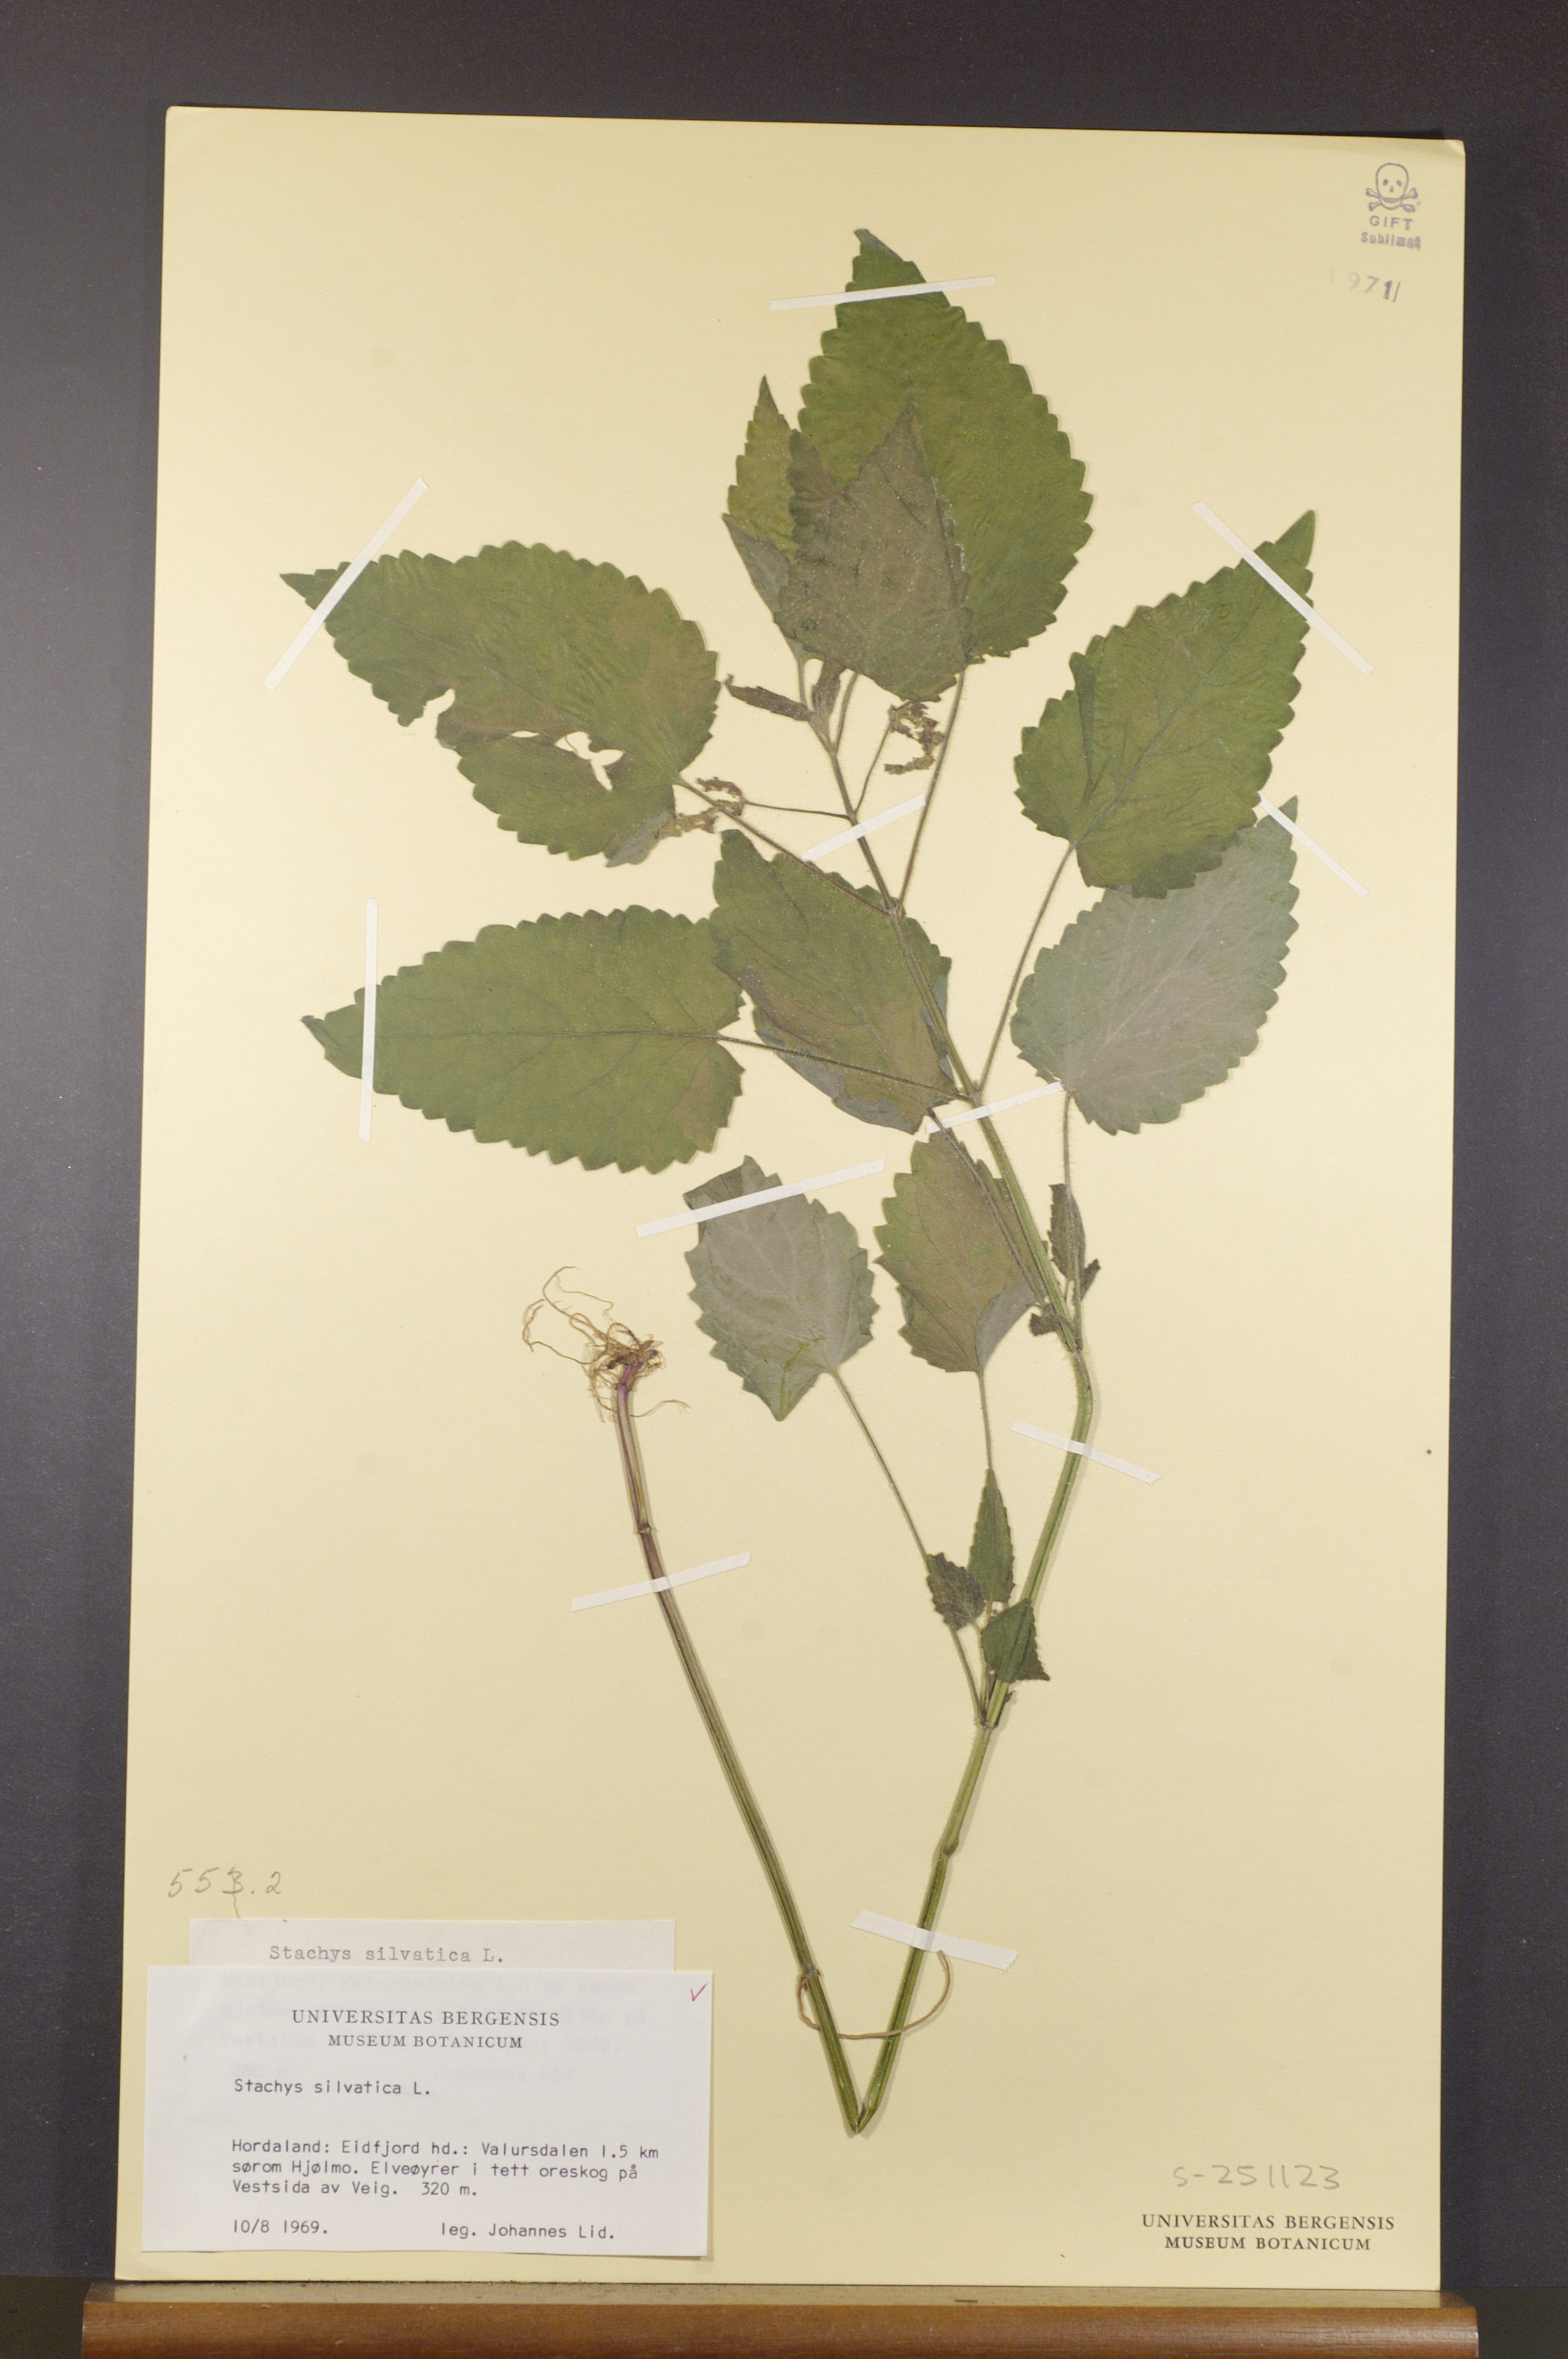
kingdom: Plantae
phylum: Tracheophyta
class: Magnoliopsida
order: Lamiales
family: Lamiaceae
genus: Stachys
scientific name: Stachys sylvatica
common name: Hedge woundwort
